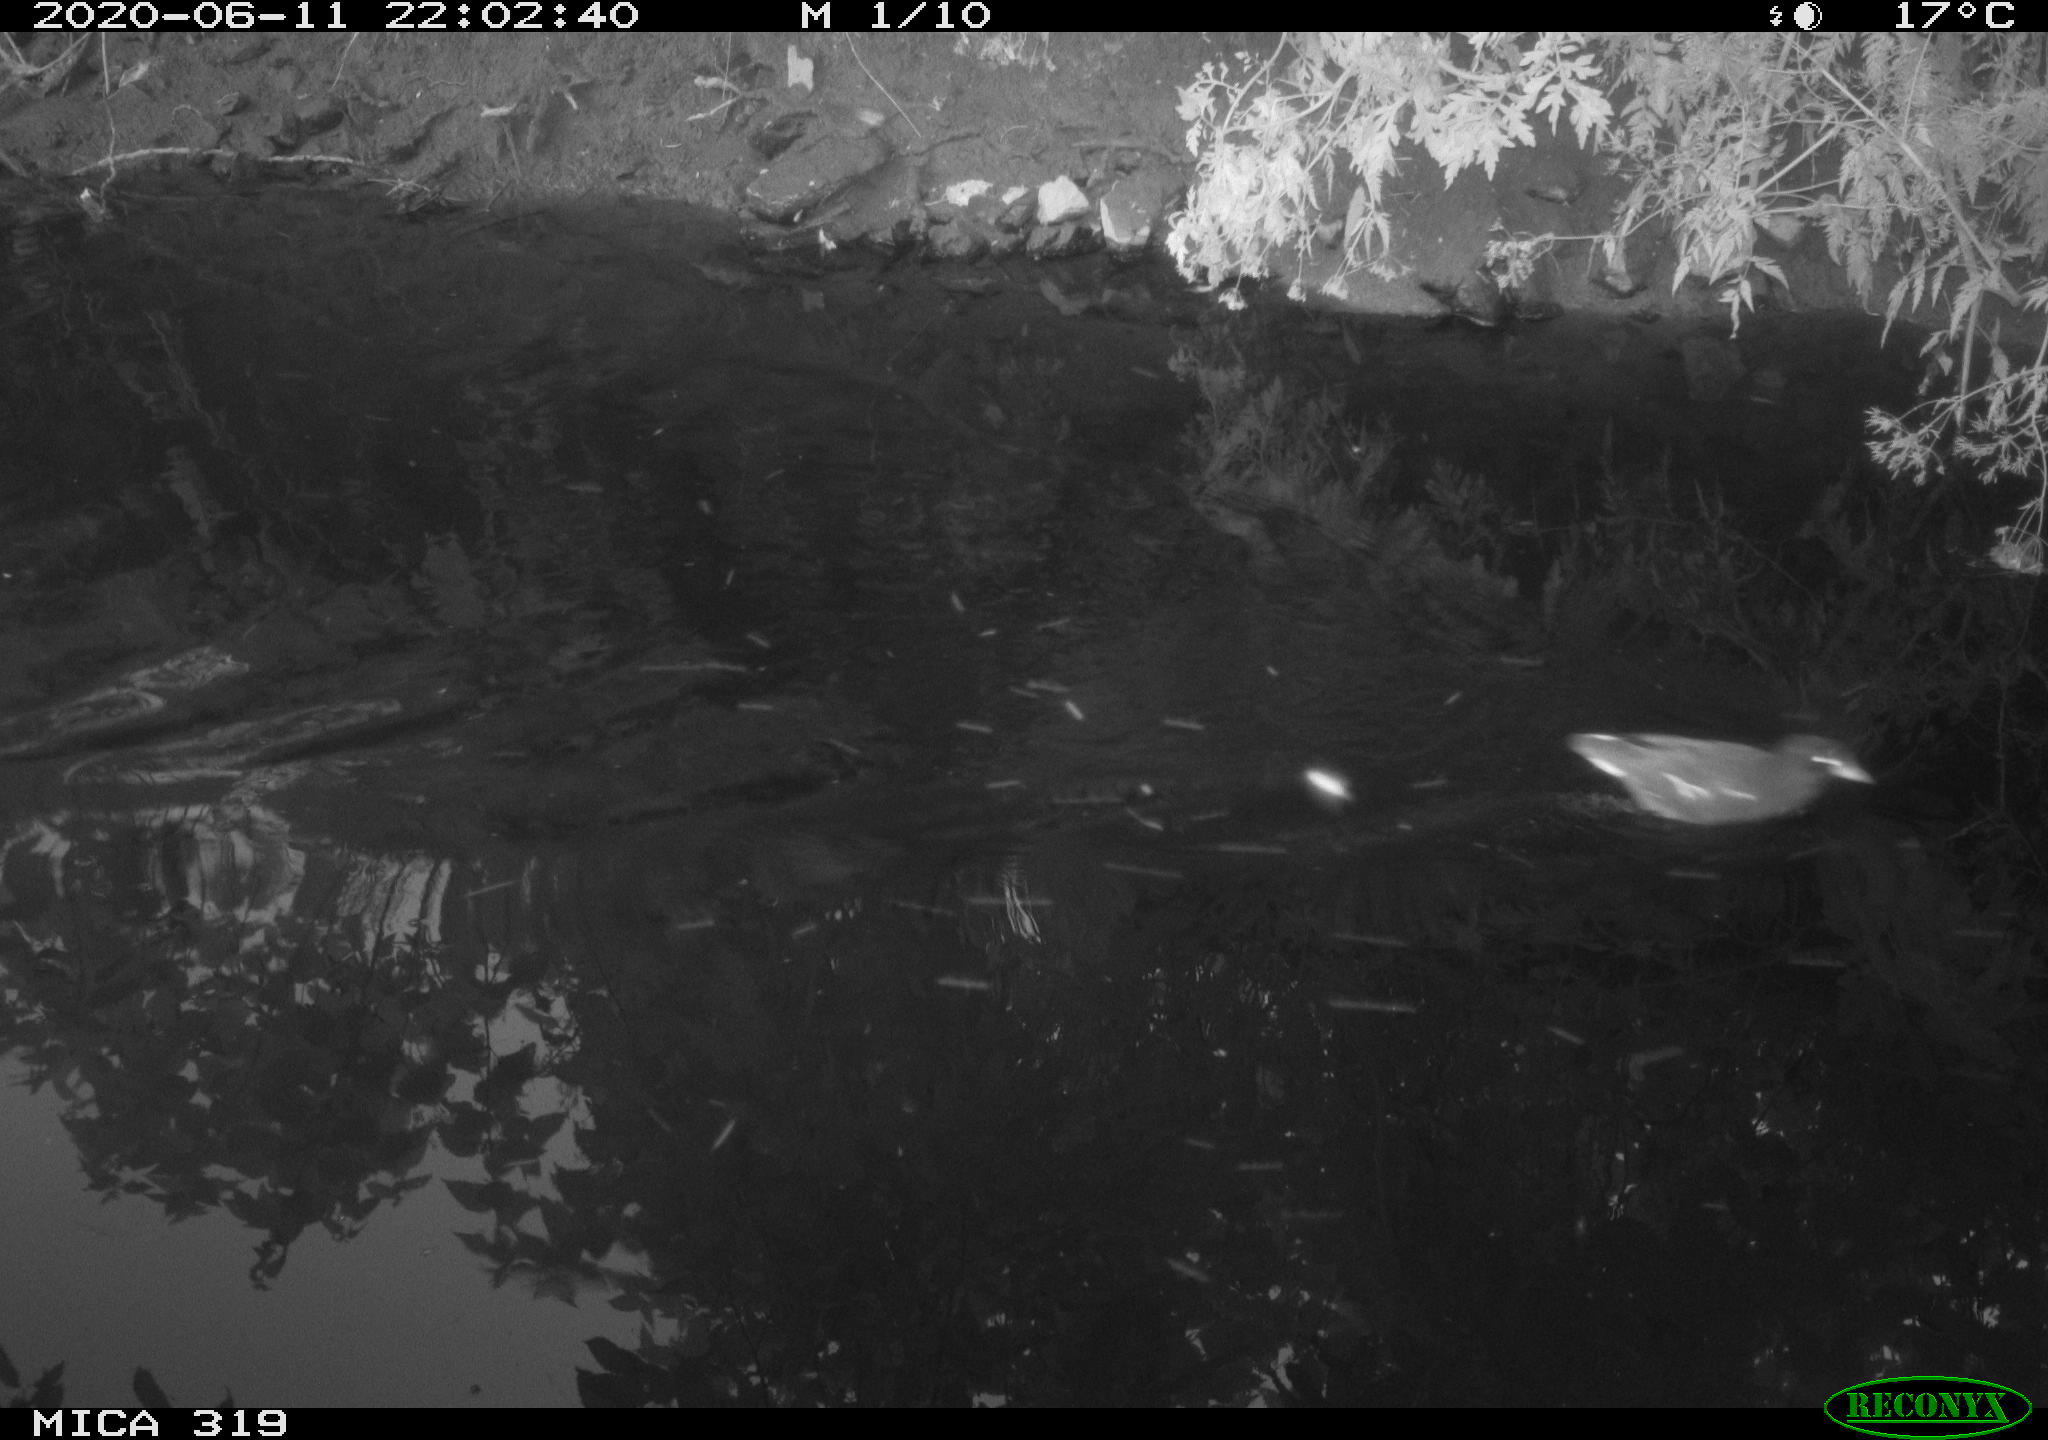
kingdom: Animalia
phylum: Chordata
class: Aves
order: Gruiformes
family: Rallidae
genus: Gallinula
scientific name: Gallinula chloropus
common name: Common moorhen
